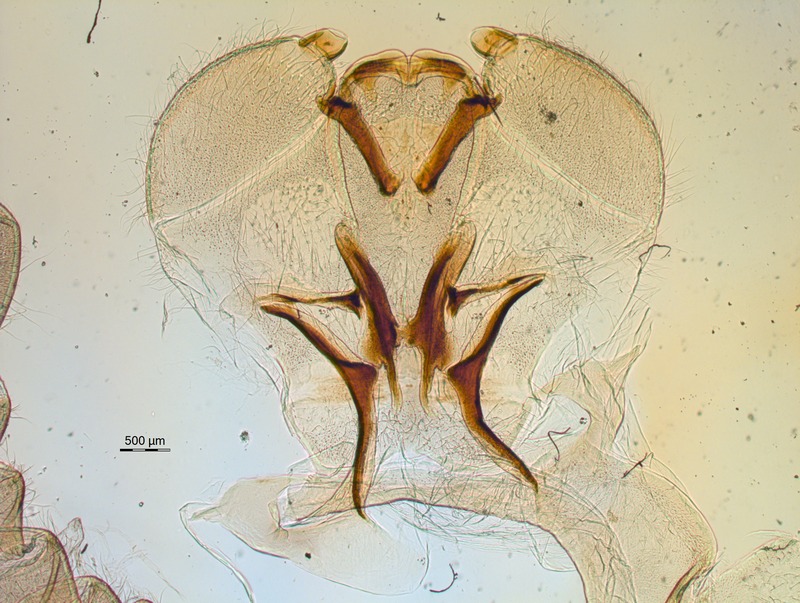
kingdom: Animalia
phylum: Arthropoda
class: Diplopoda
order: Sphaerotheriida
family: Zephroniidae
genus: Sphaerobelum
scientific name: Sphaerobelum clavigerum
